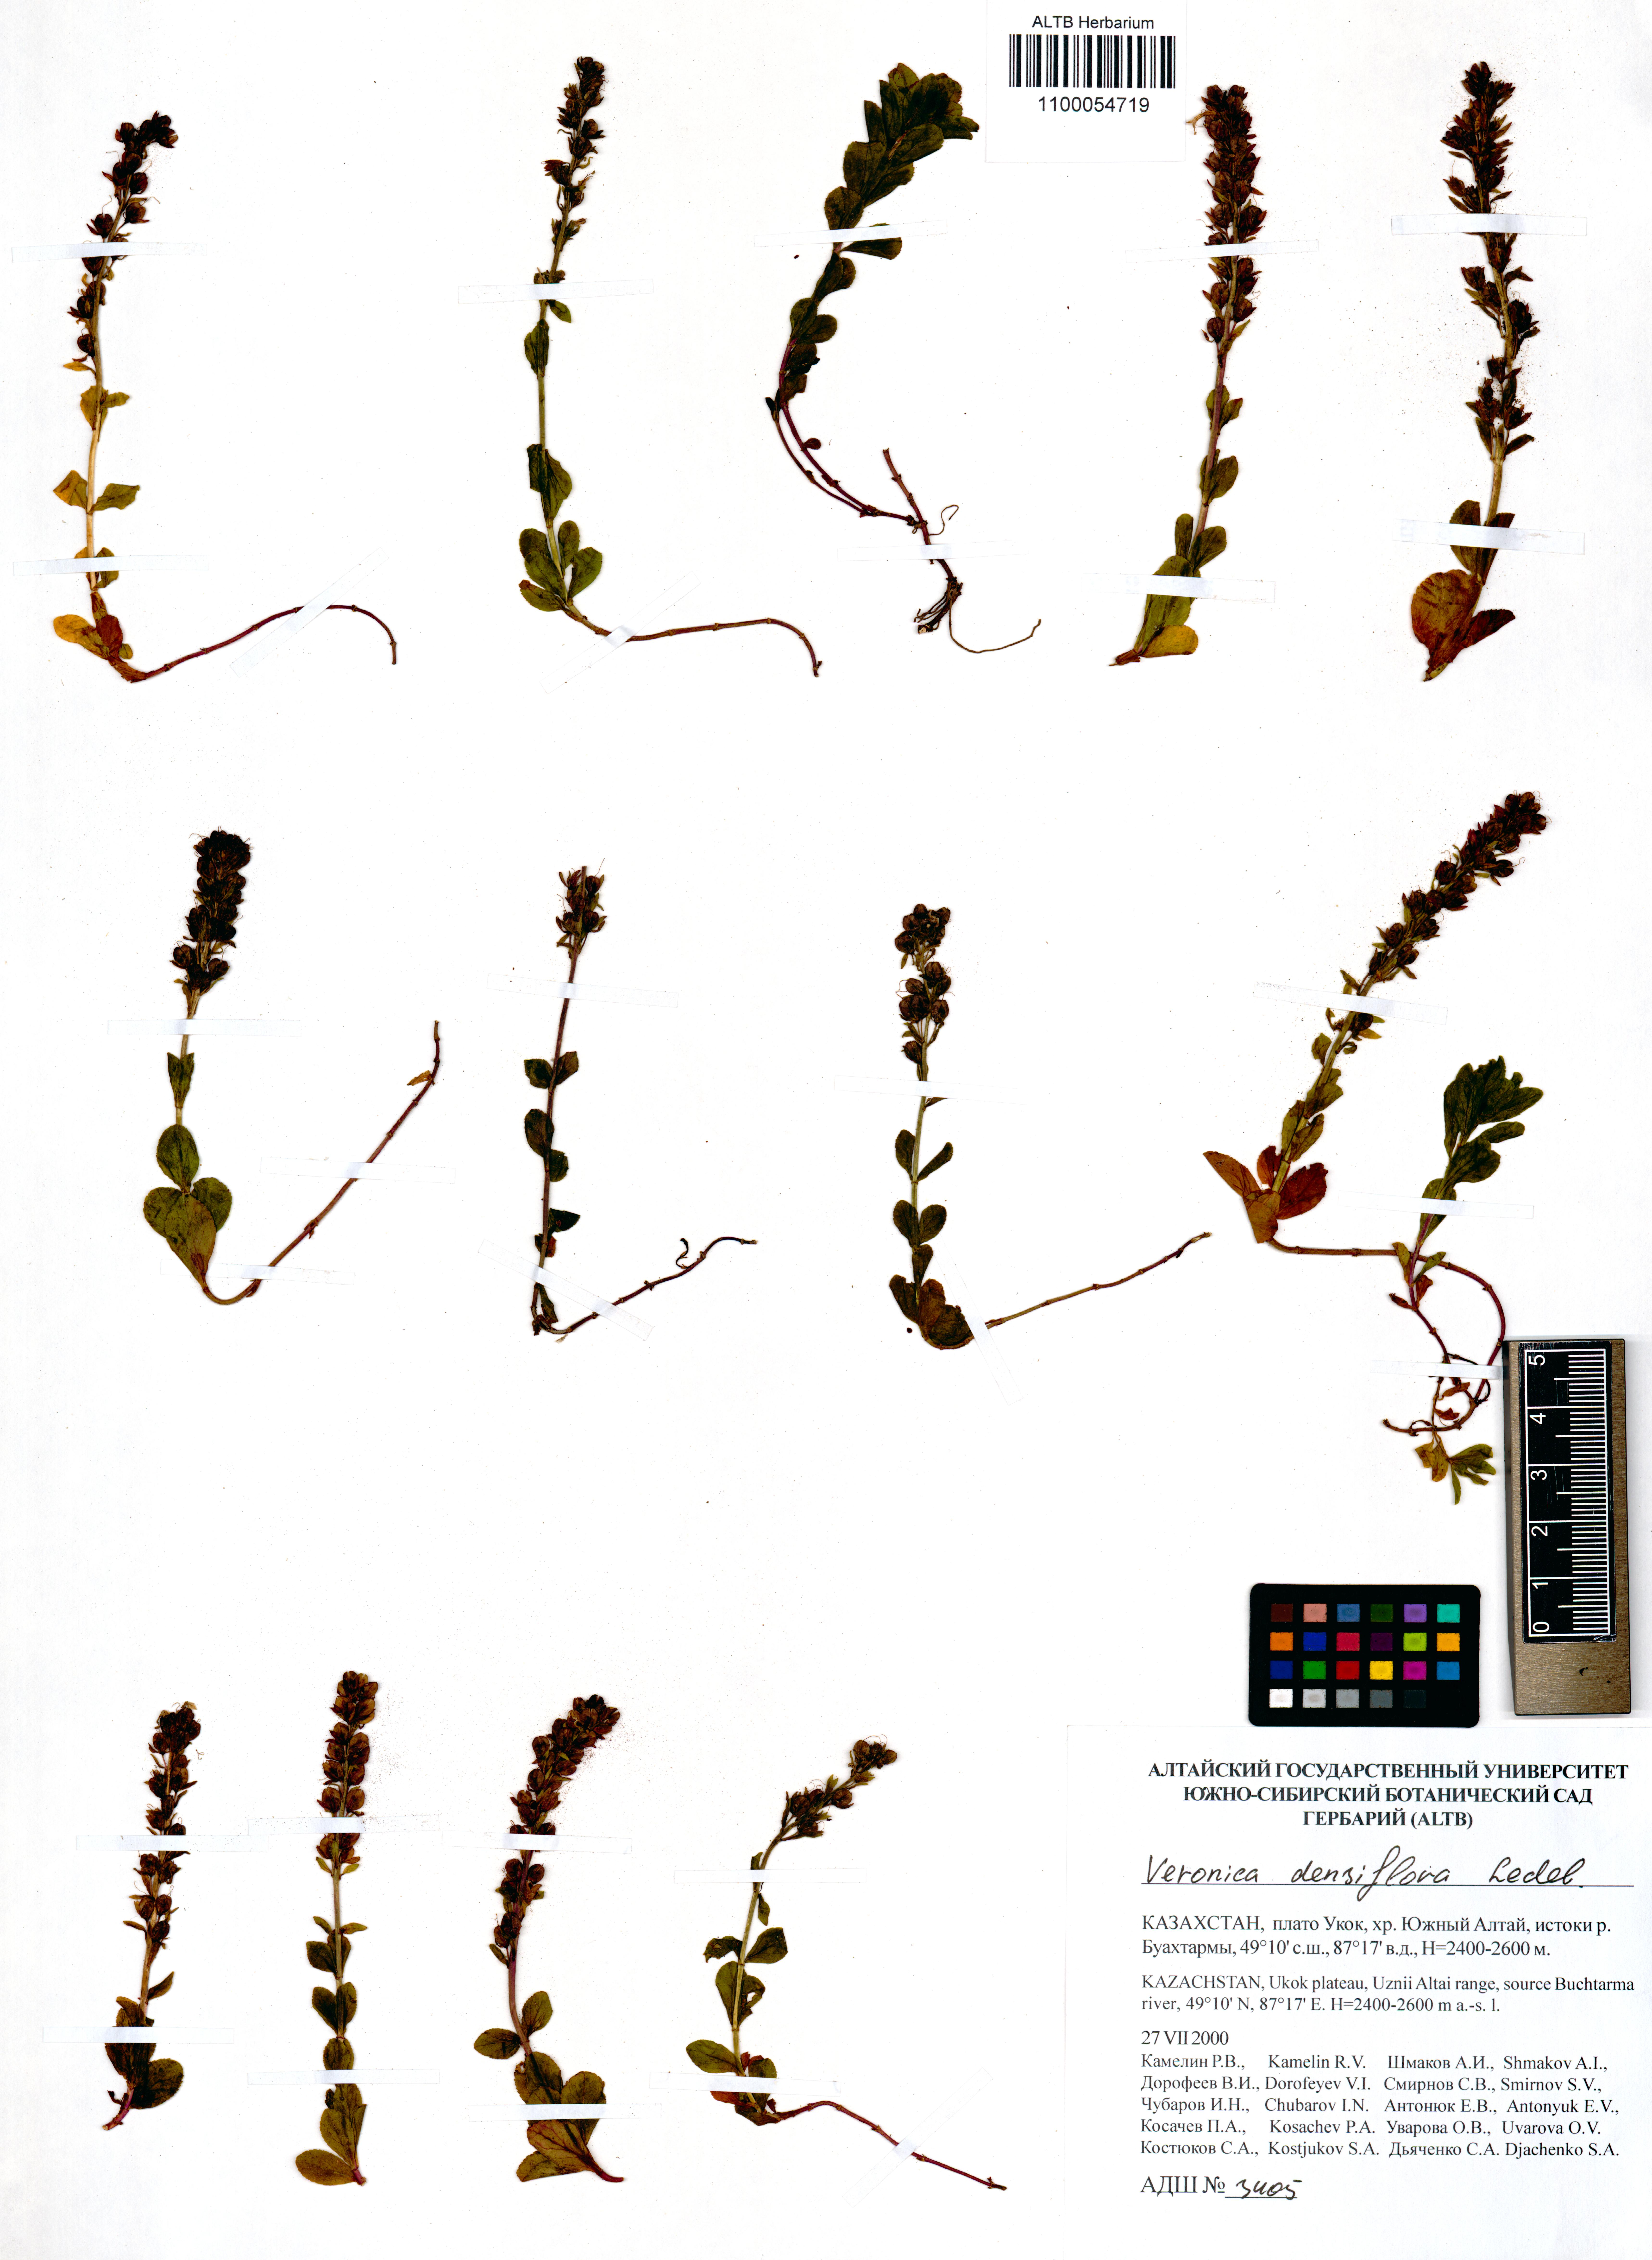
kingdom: Plantae
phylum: Tracheophyta
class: Magnoliopsida
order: Lamiales
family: Plantaginaceae
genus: Veronica
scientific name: Veronica densiflora
